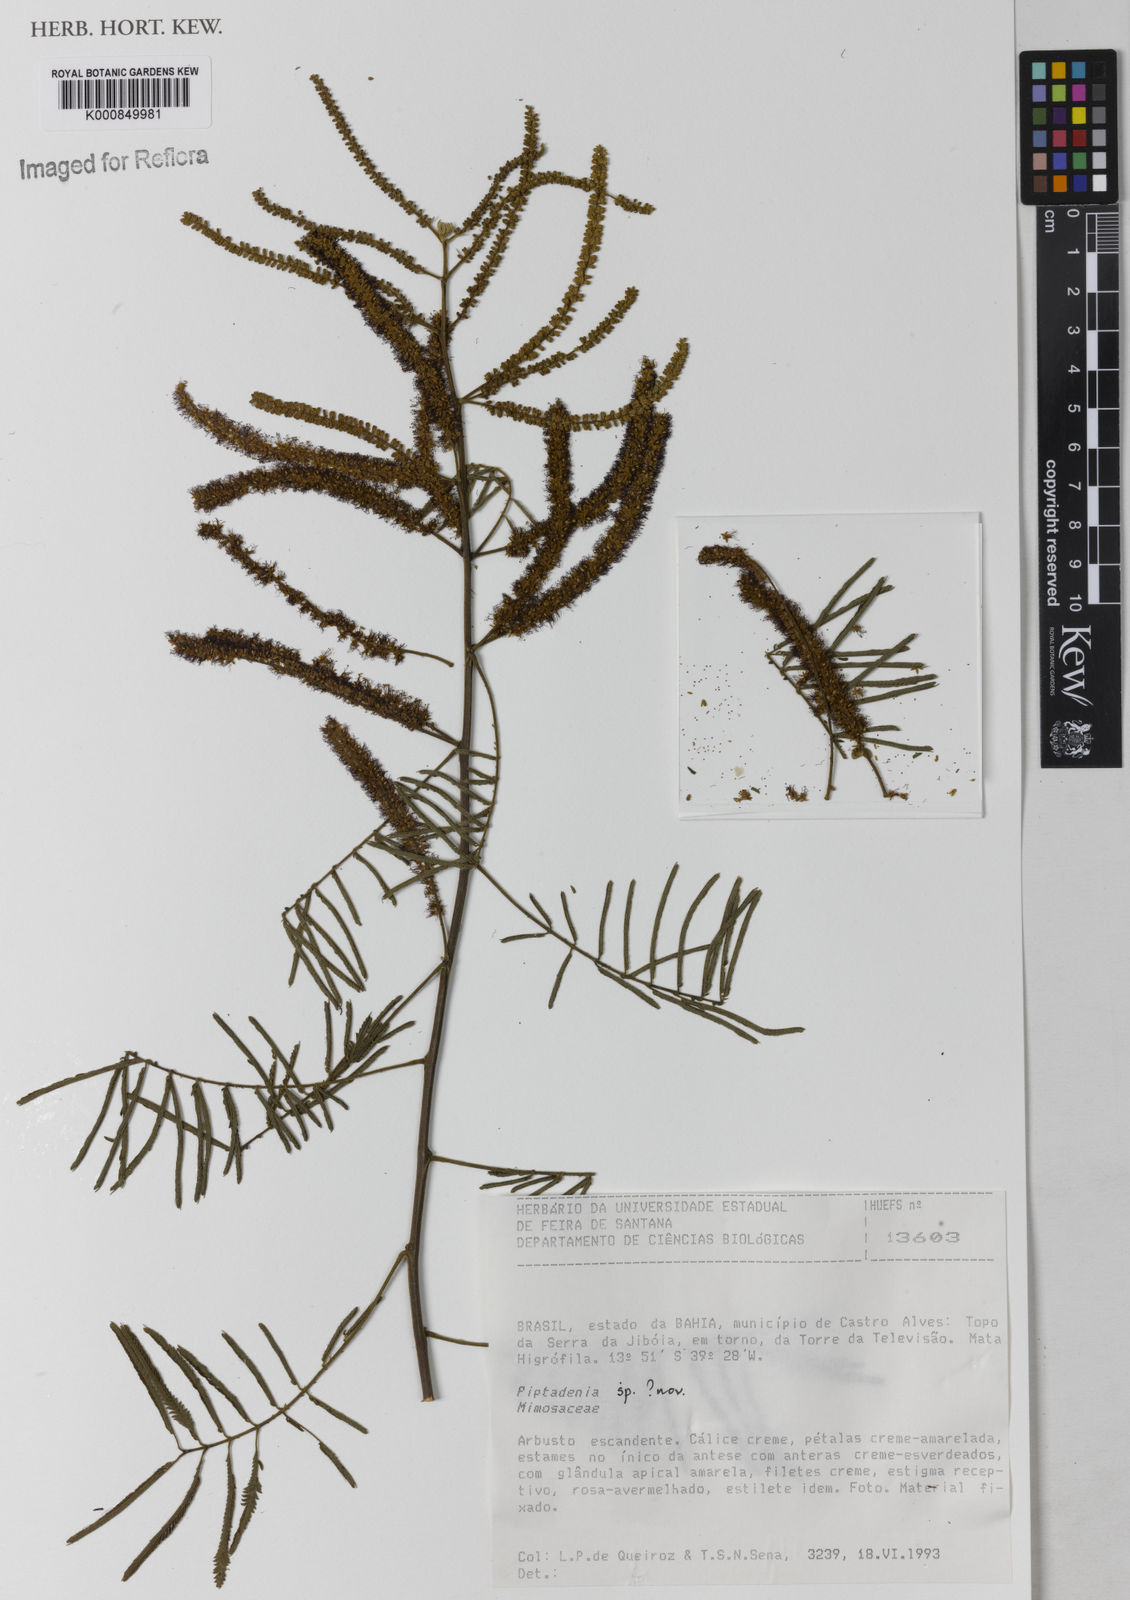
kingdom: Plantae
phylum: Tracheophyta
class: Magnoliopsida
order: Fabales
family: Fabaceae
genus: Piptadenia
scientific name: Piptadenia micracantha
